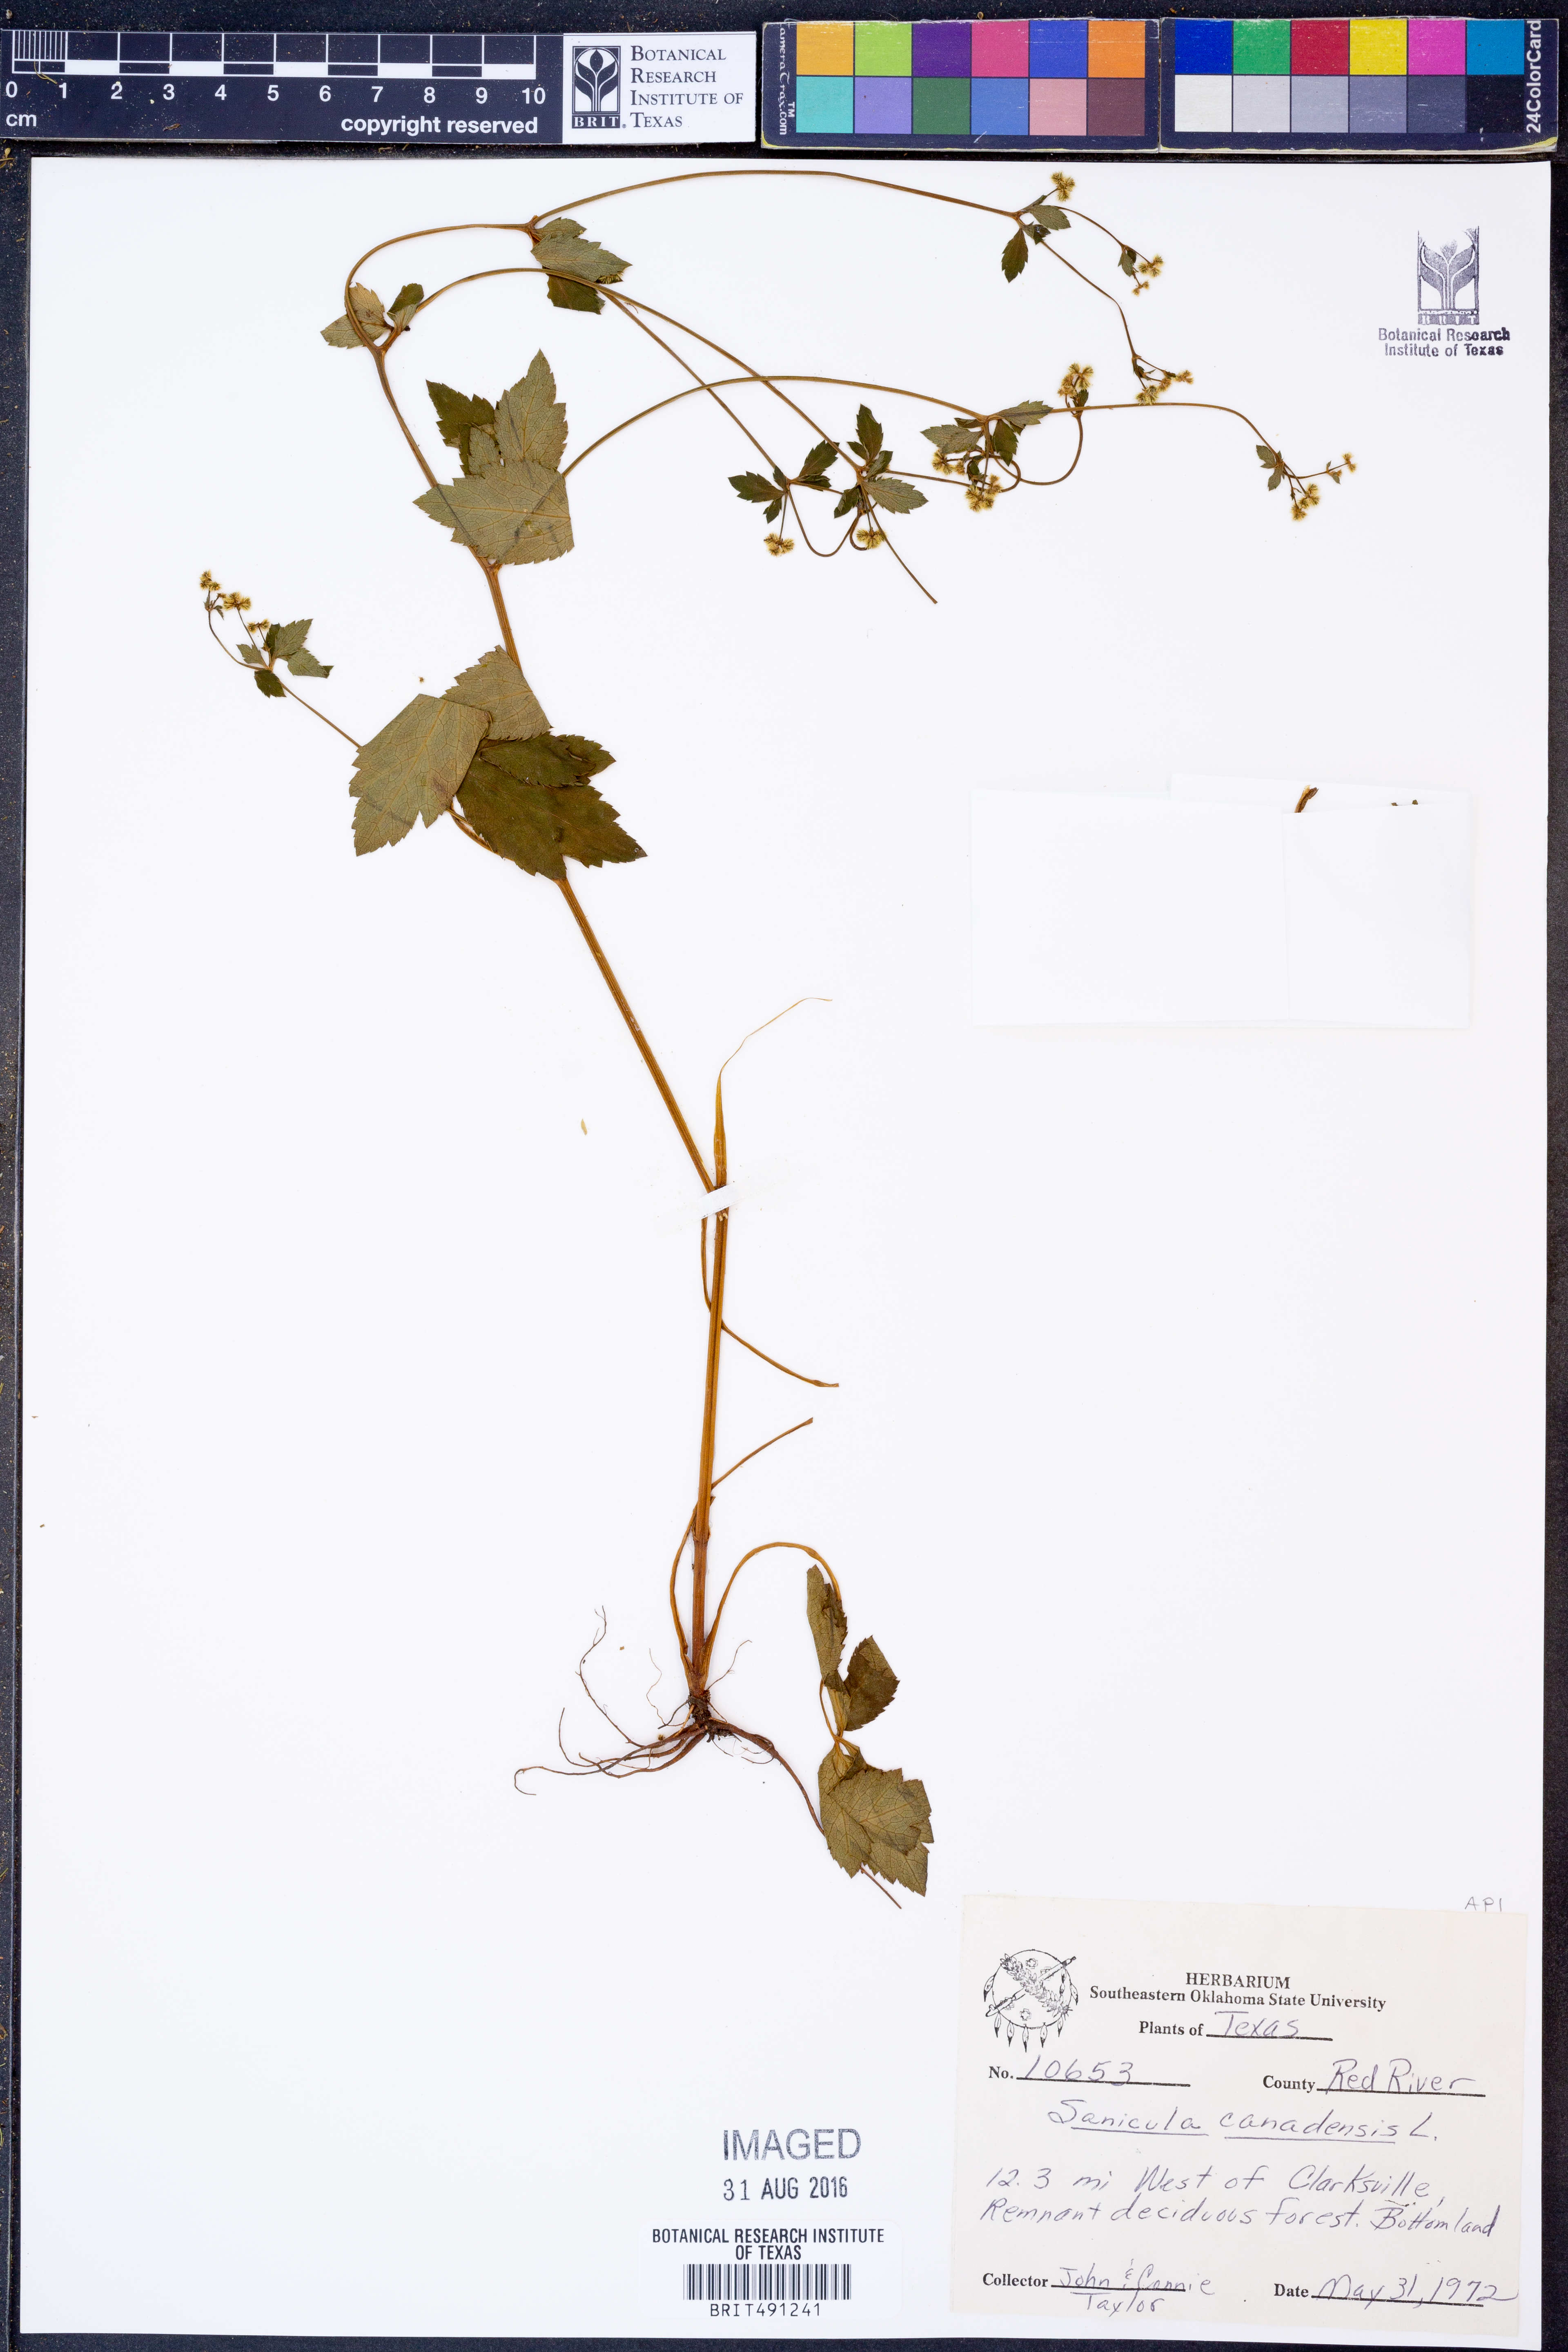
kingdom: Plantae
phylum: Tracheophyta
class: Magnoliopsida
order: Apiales
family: Apiaceae
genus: Sanicula
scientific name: Sanicula canadensis
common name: Canada sanicle
